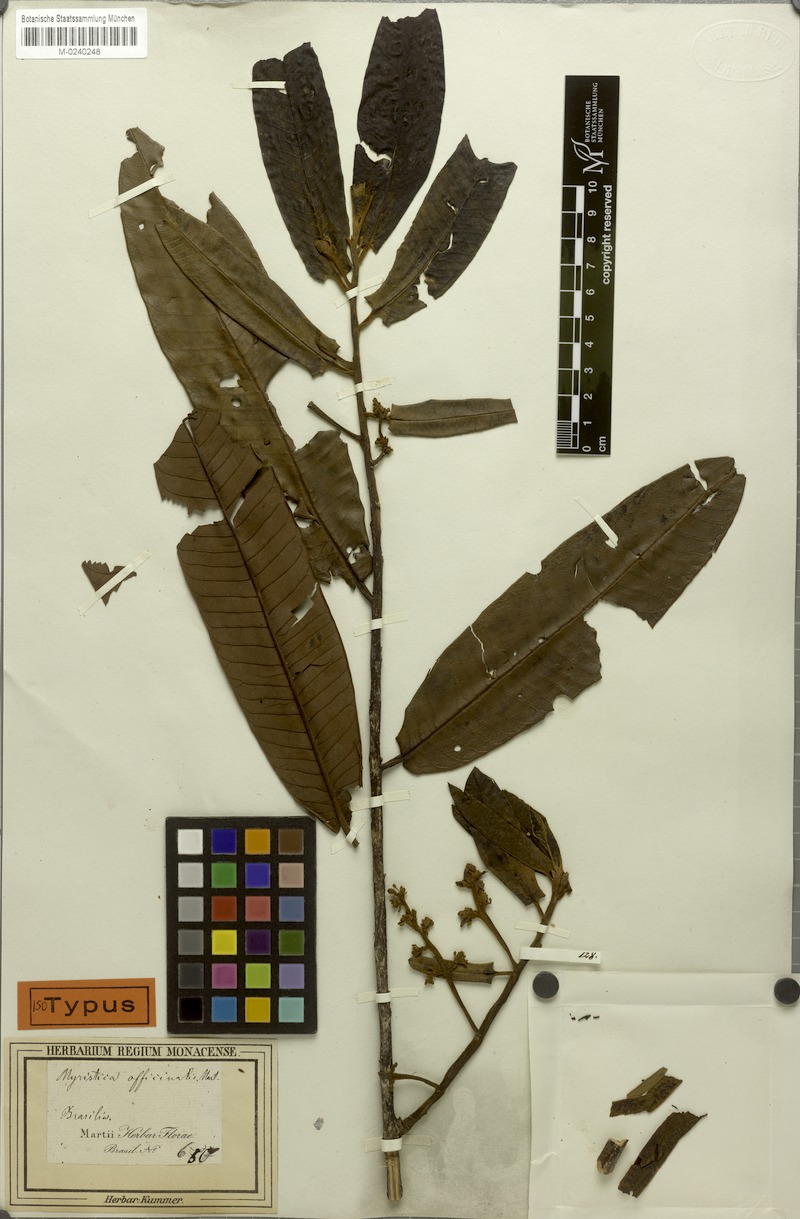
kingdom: Plantae
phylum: Tracheophyta
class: Magnoliopsida
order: Magnoliales
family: Myristicaceae
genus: Virola
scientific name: Virola officinalis
